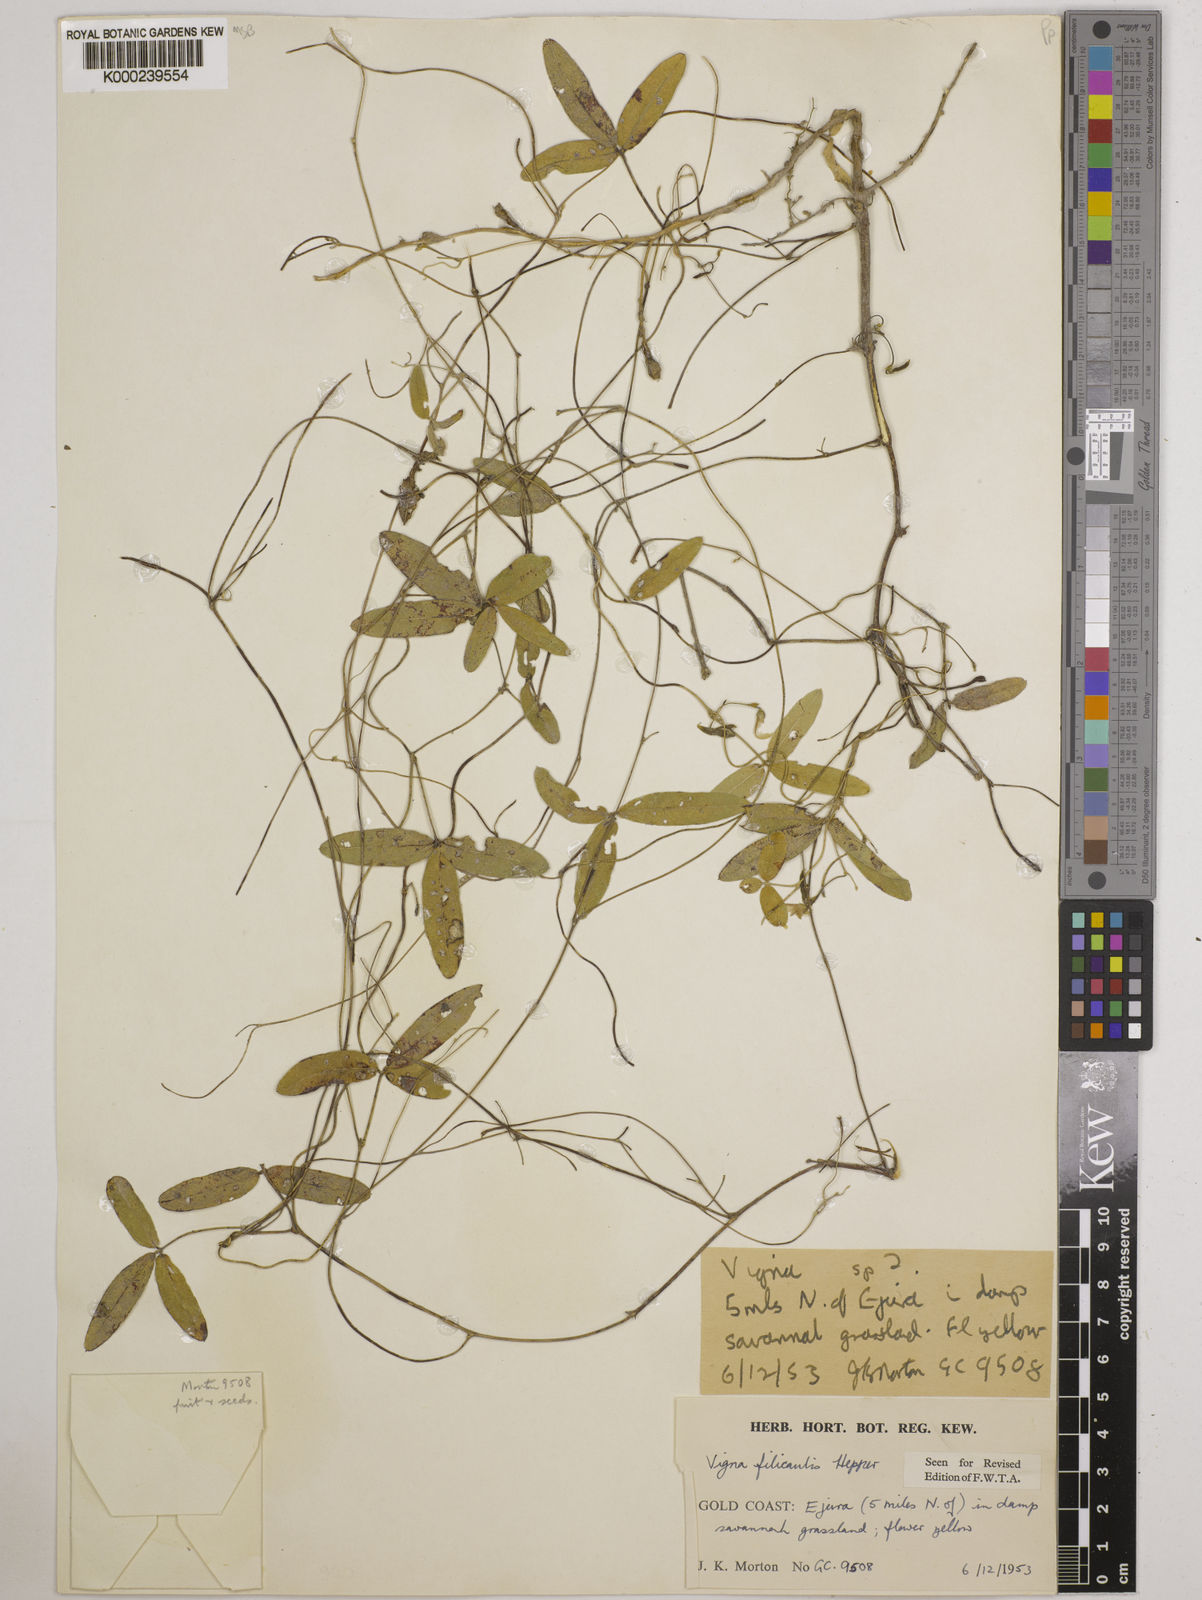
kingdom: Plantae
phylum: Tracheophyta
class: Magnoliopsida
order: Fabales
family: Fabaceae
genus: Vigna
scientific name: Vigna filicaulis
